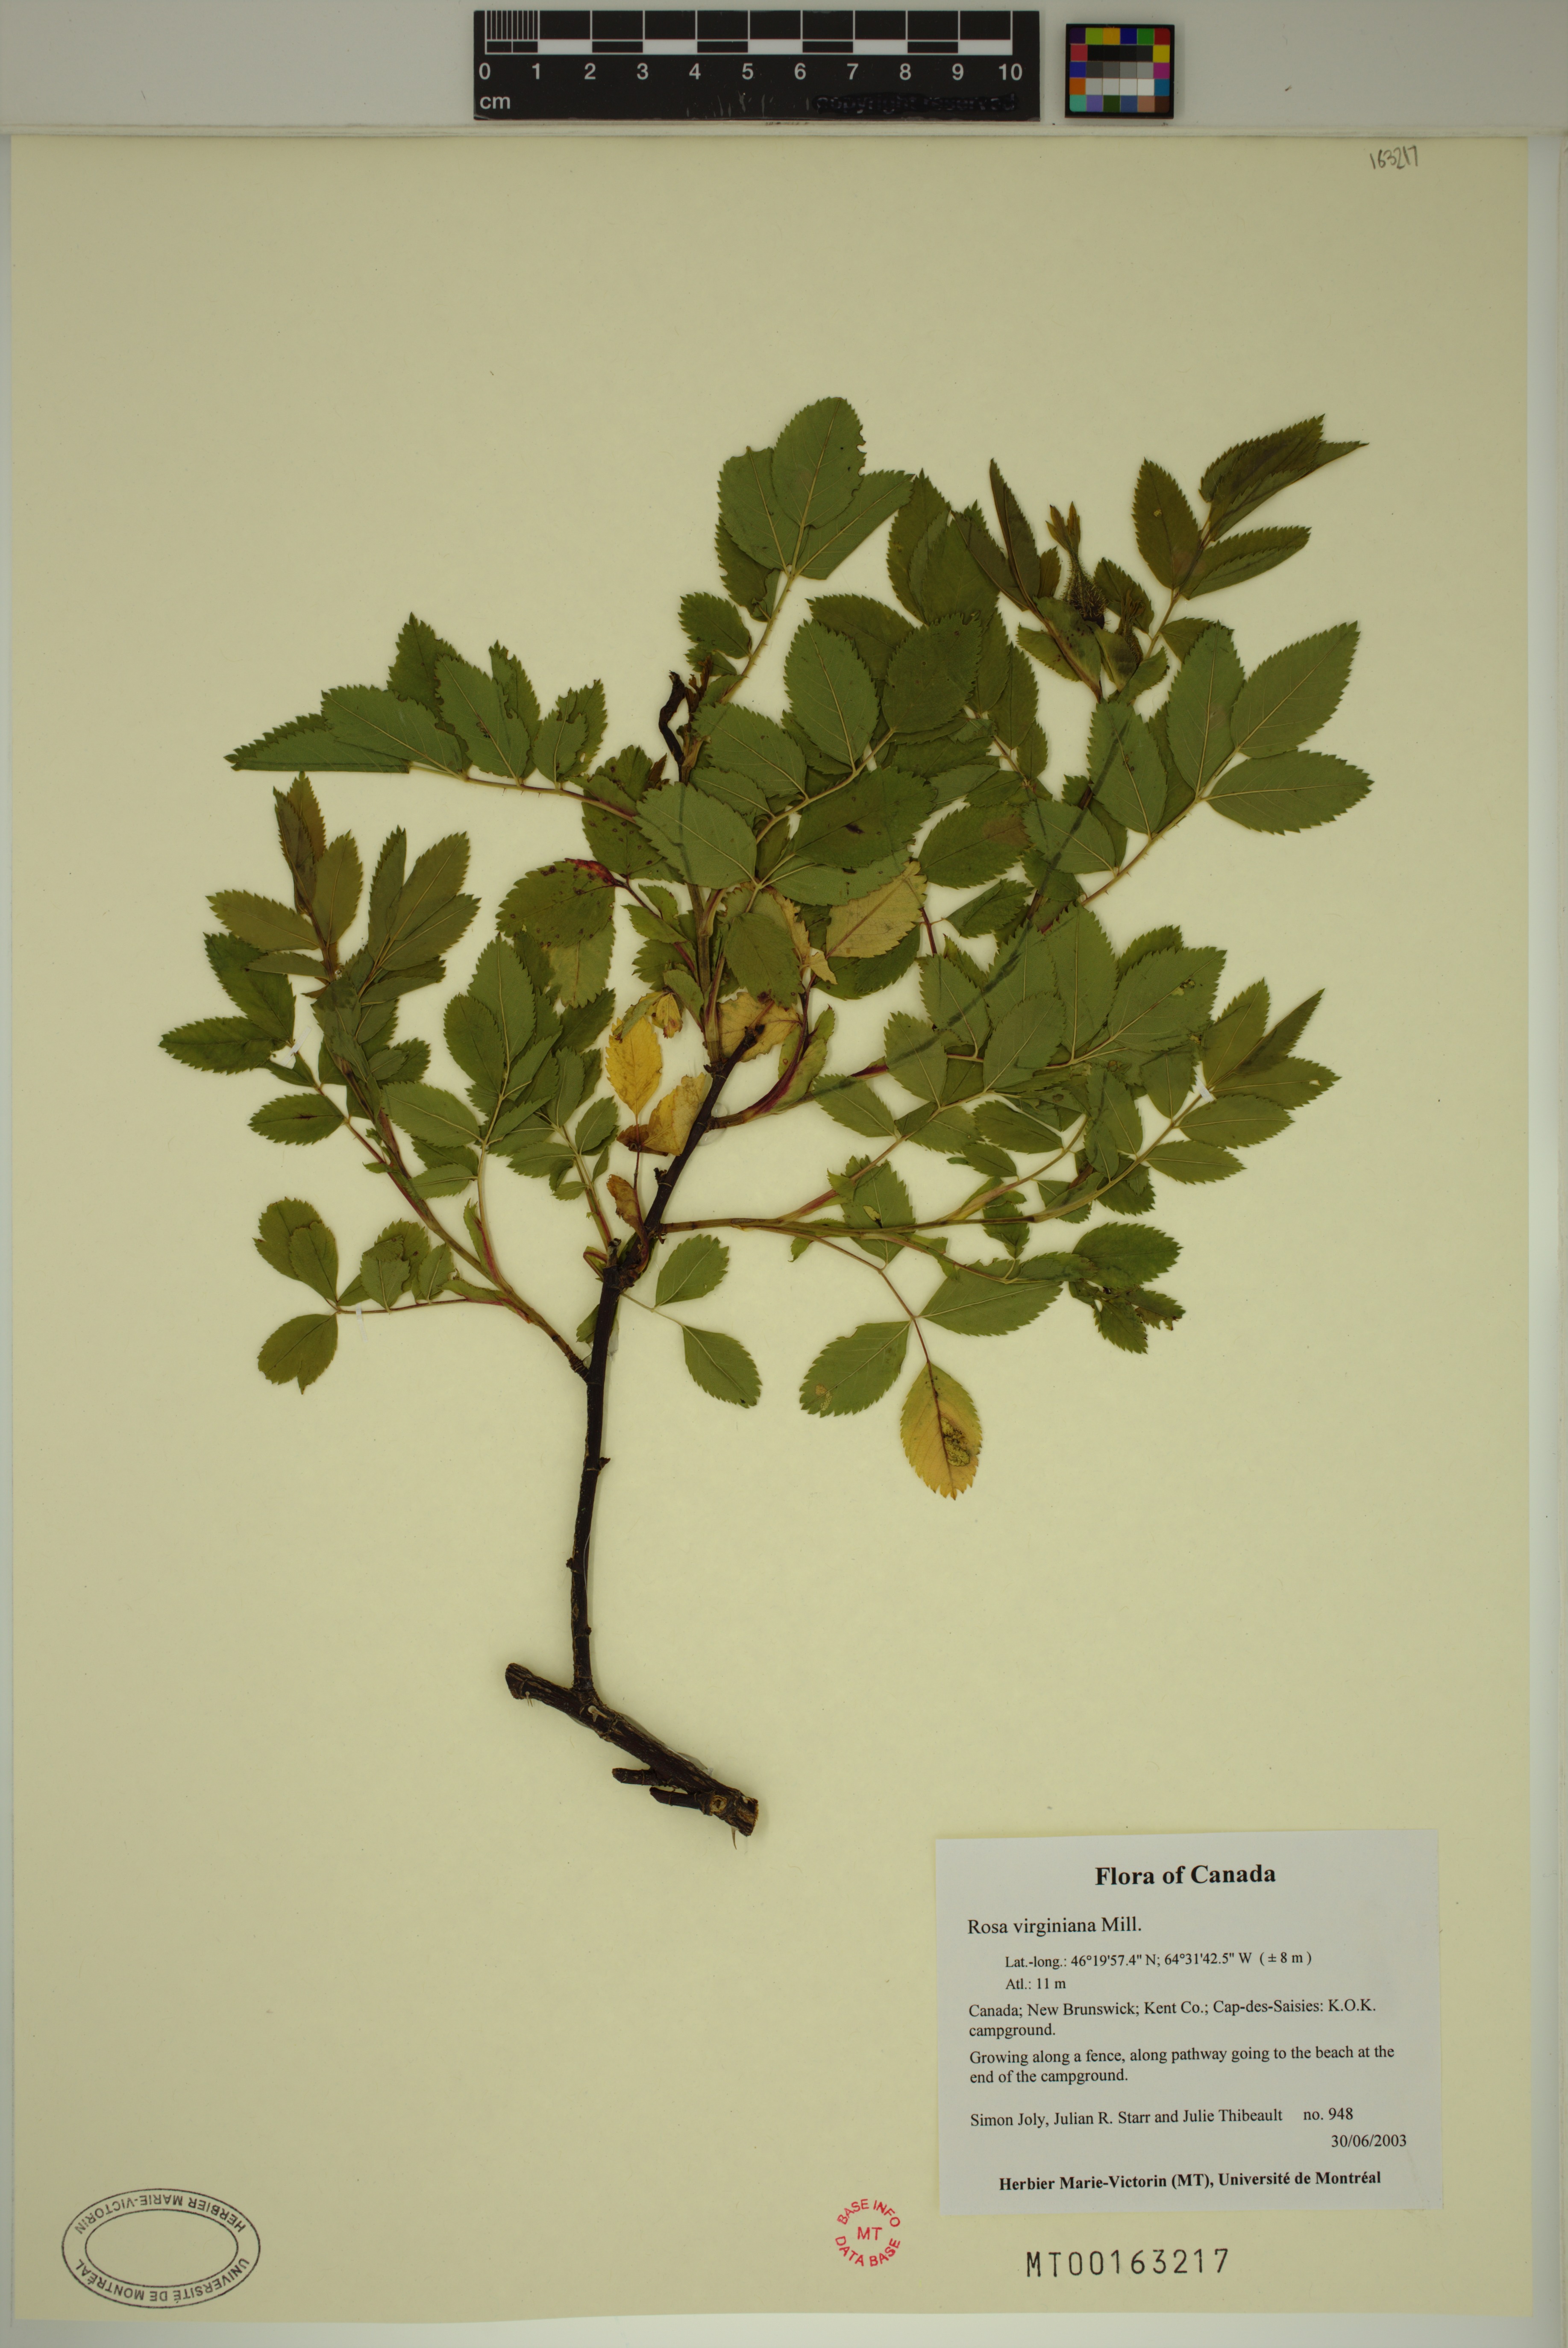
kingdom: Plantae
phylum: Tracheophyta
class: Magnoliopsida
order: Rosales
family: Rosaceae
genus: Rosa
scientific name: Rosa carolina
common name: Pasture rose
